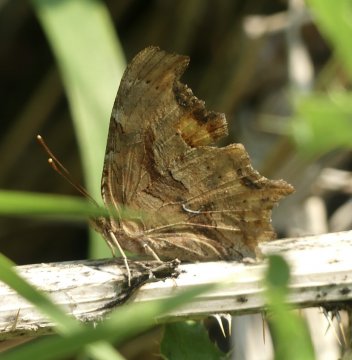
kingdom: Animalia
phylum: Arthropoda
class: Insecta
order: Lepidoptera
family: Nymphalidae
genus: Polygonia
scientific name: Polygonia satyrus
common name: Satyr Comma
